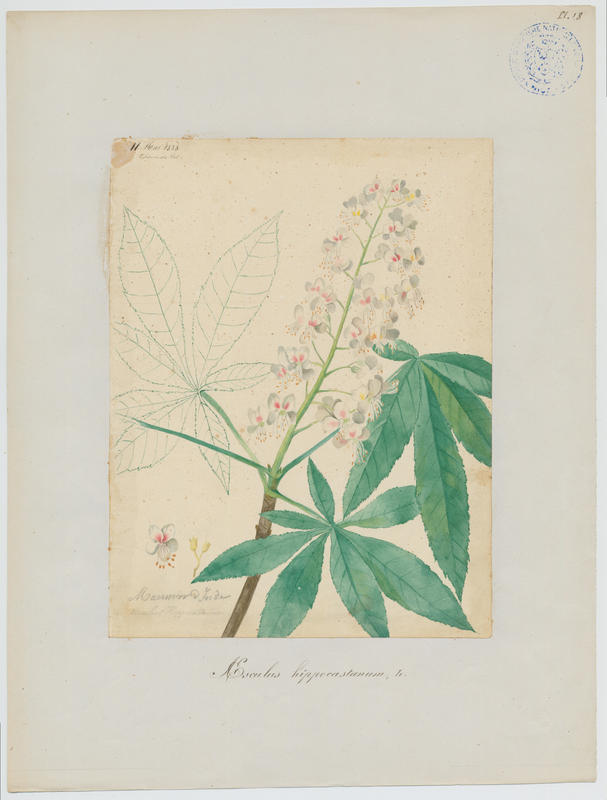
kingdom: Plantae
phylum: Tracheophyta
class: Magnoliopsida
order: Sapindales
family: Sapindaceae
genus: Aesculus
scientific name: Aesculus hippocastanum
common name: Horse-chestnut
